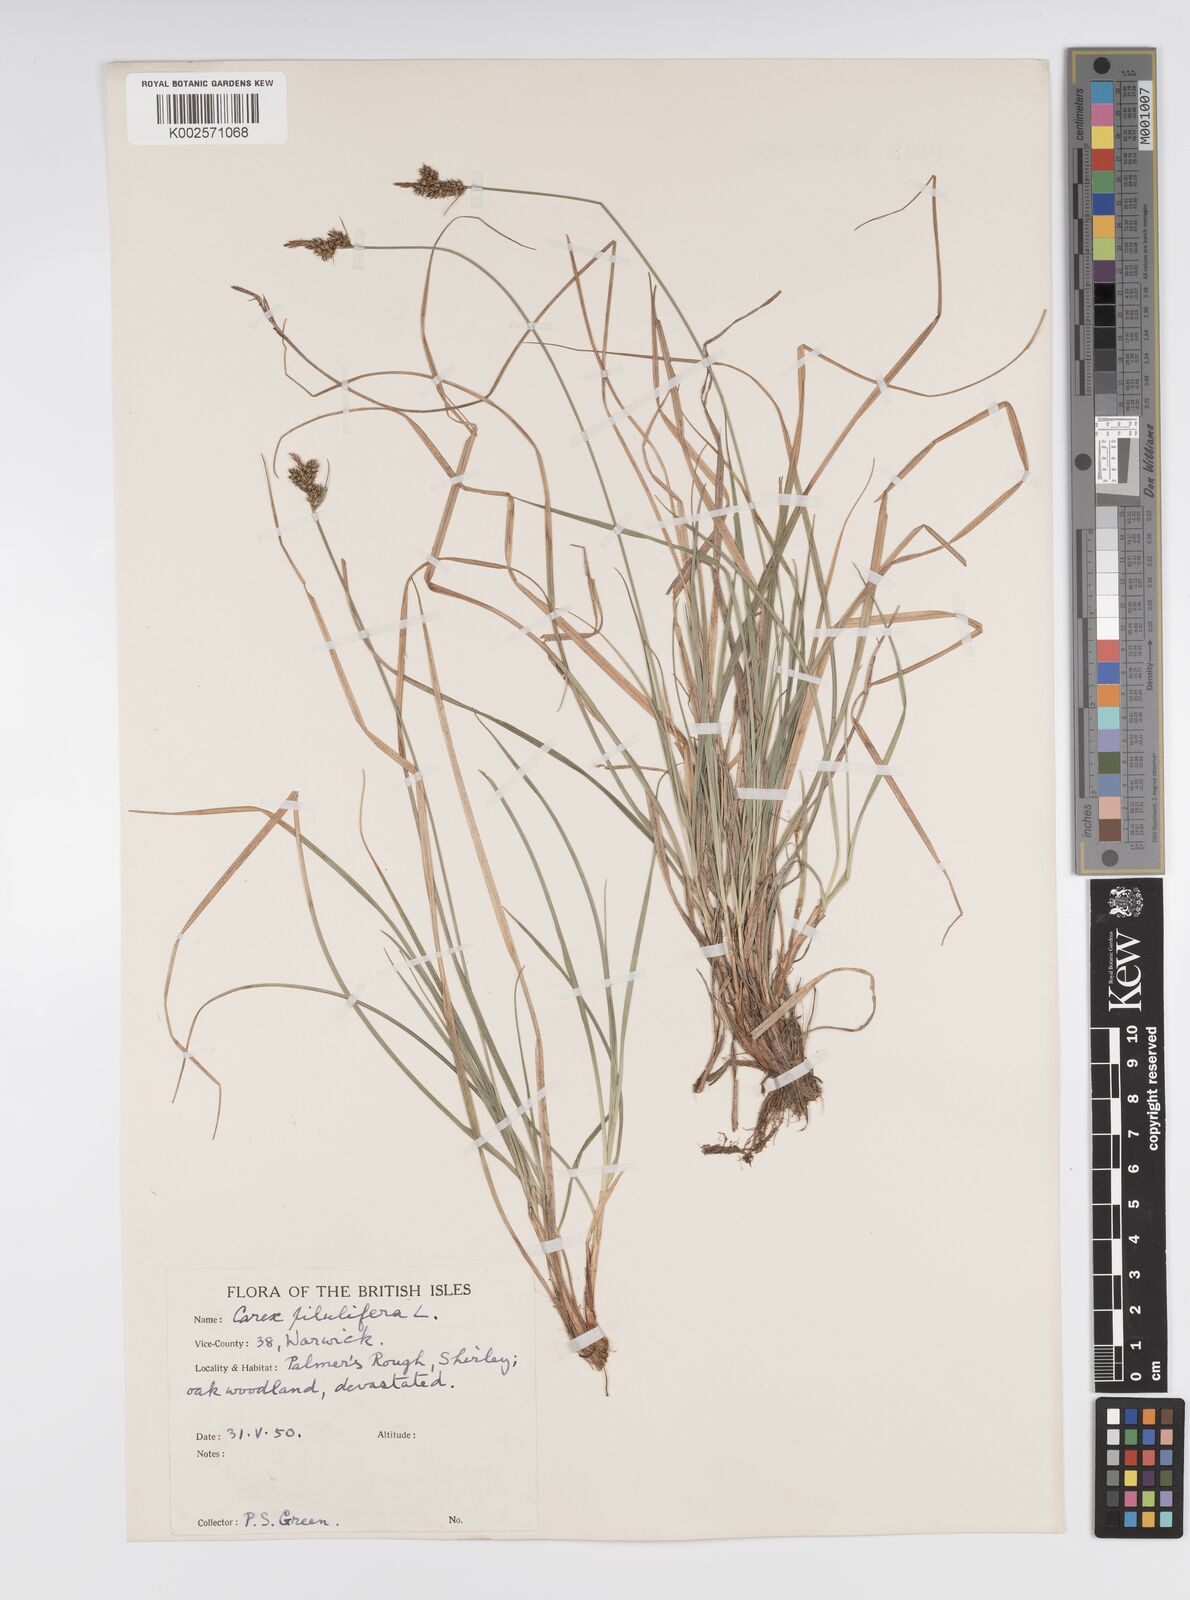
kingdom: Plantae
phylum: Tracheophyta
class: Liliopsida
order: Poales
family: Cyperaceae
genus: Carex
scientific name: Carex pilulifera
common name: Pill sedge
